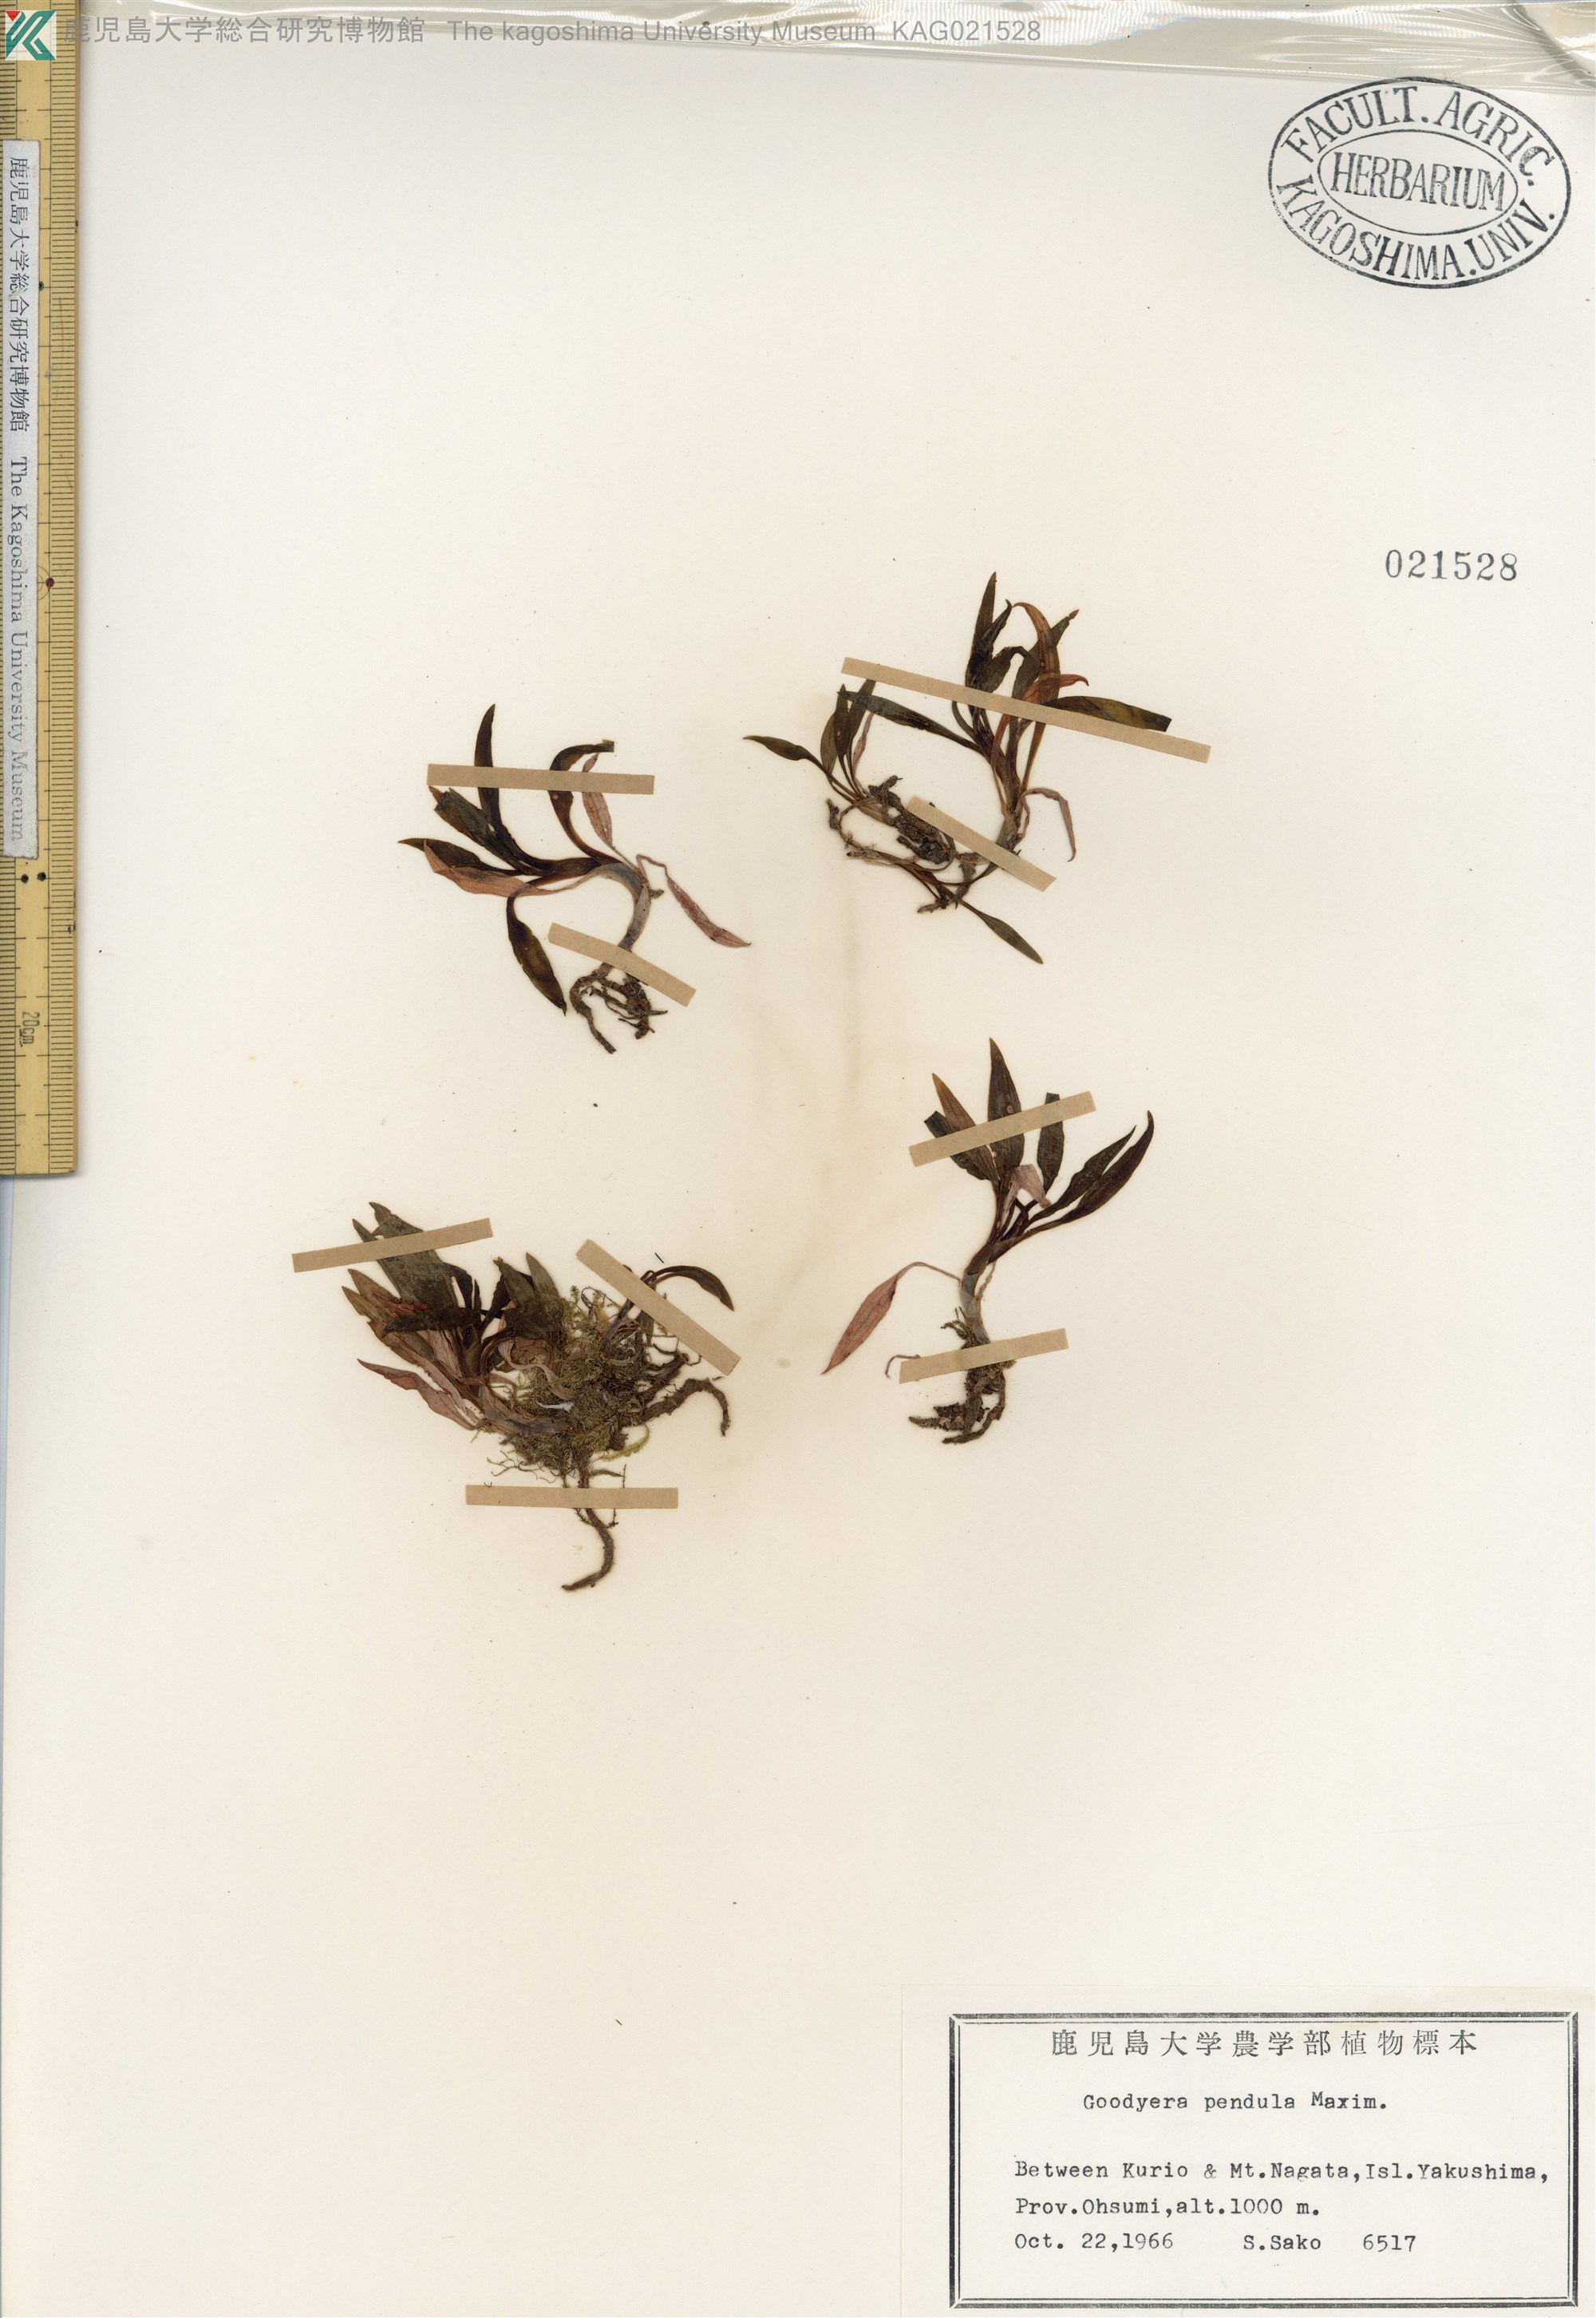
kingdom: Plantae
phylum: Tracheophyta
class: Liliopsida
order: Asparagales
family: Orchidaceae
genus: Goodyera
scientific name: Goodyera pendula
